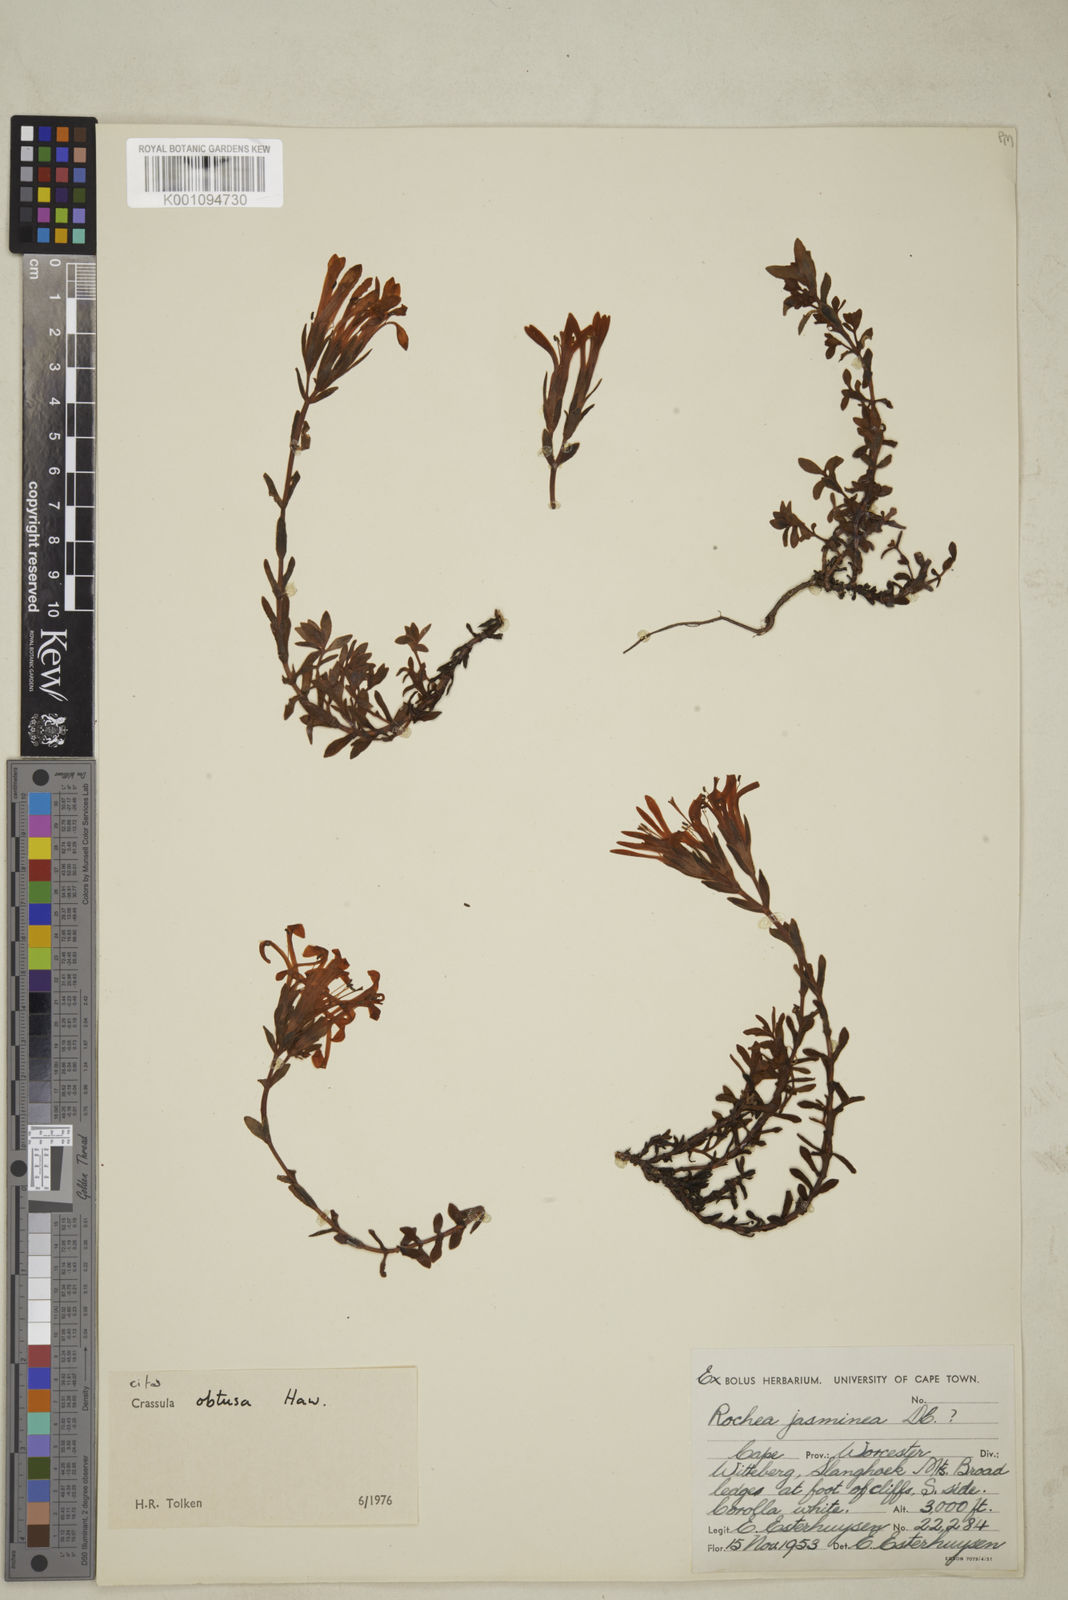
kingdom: Plantae
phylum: Tracheophyta
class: Magnoliopsida
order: Saxifragales
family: Crassulaceae
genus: Crassula
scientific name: Crassula obtusa
